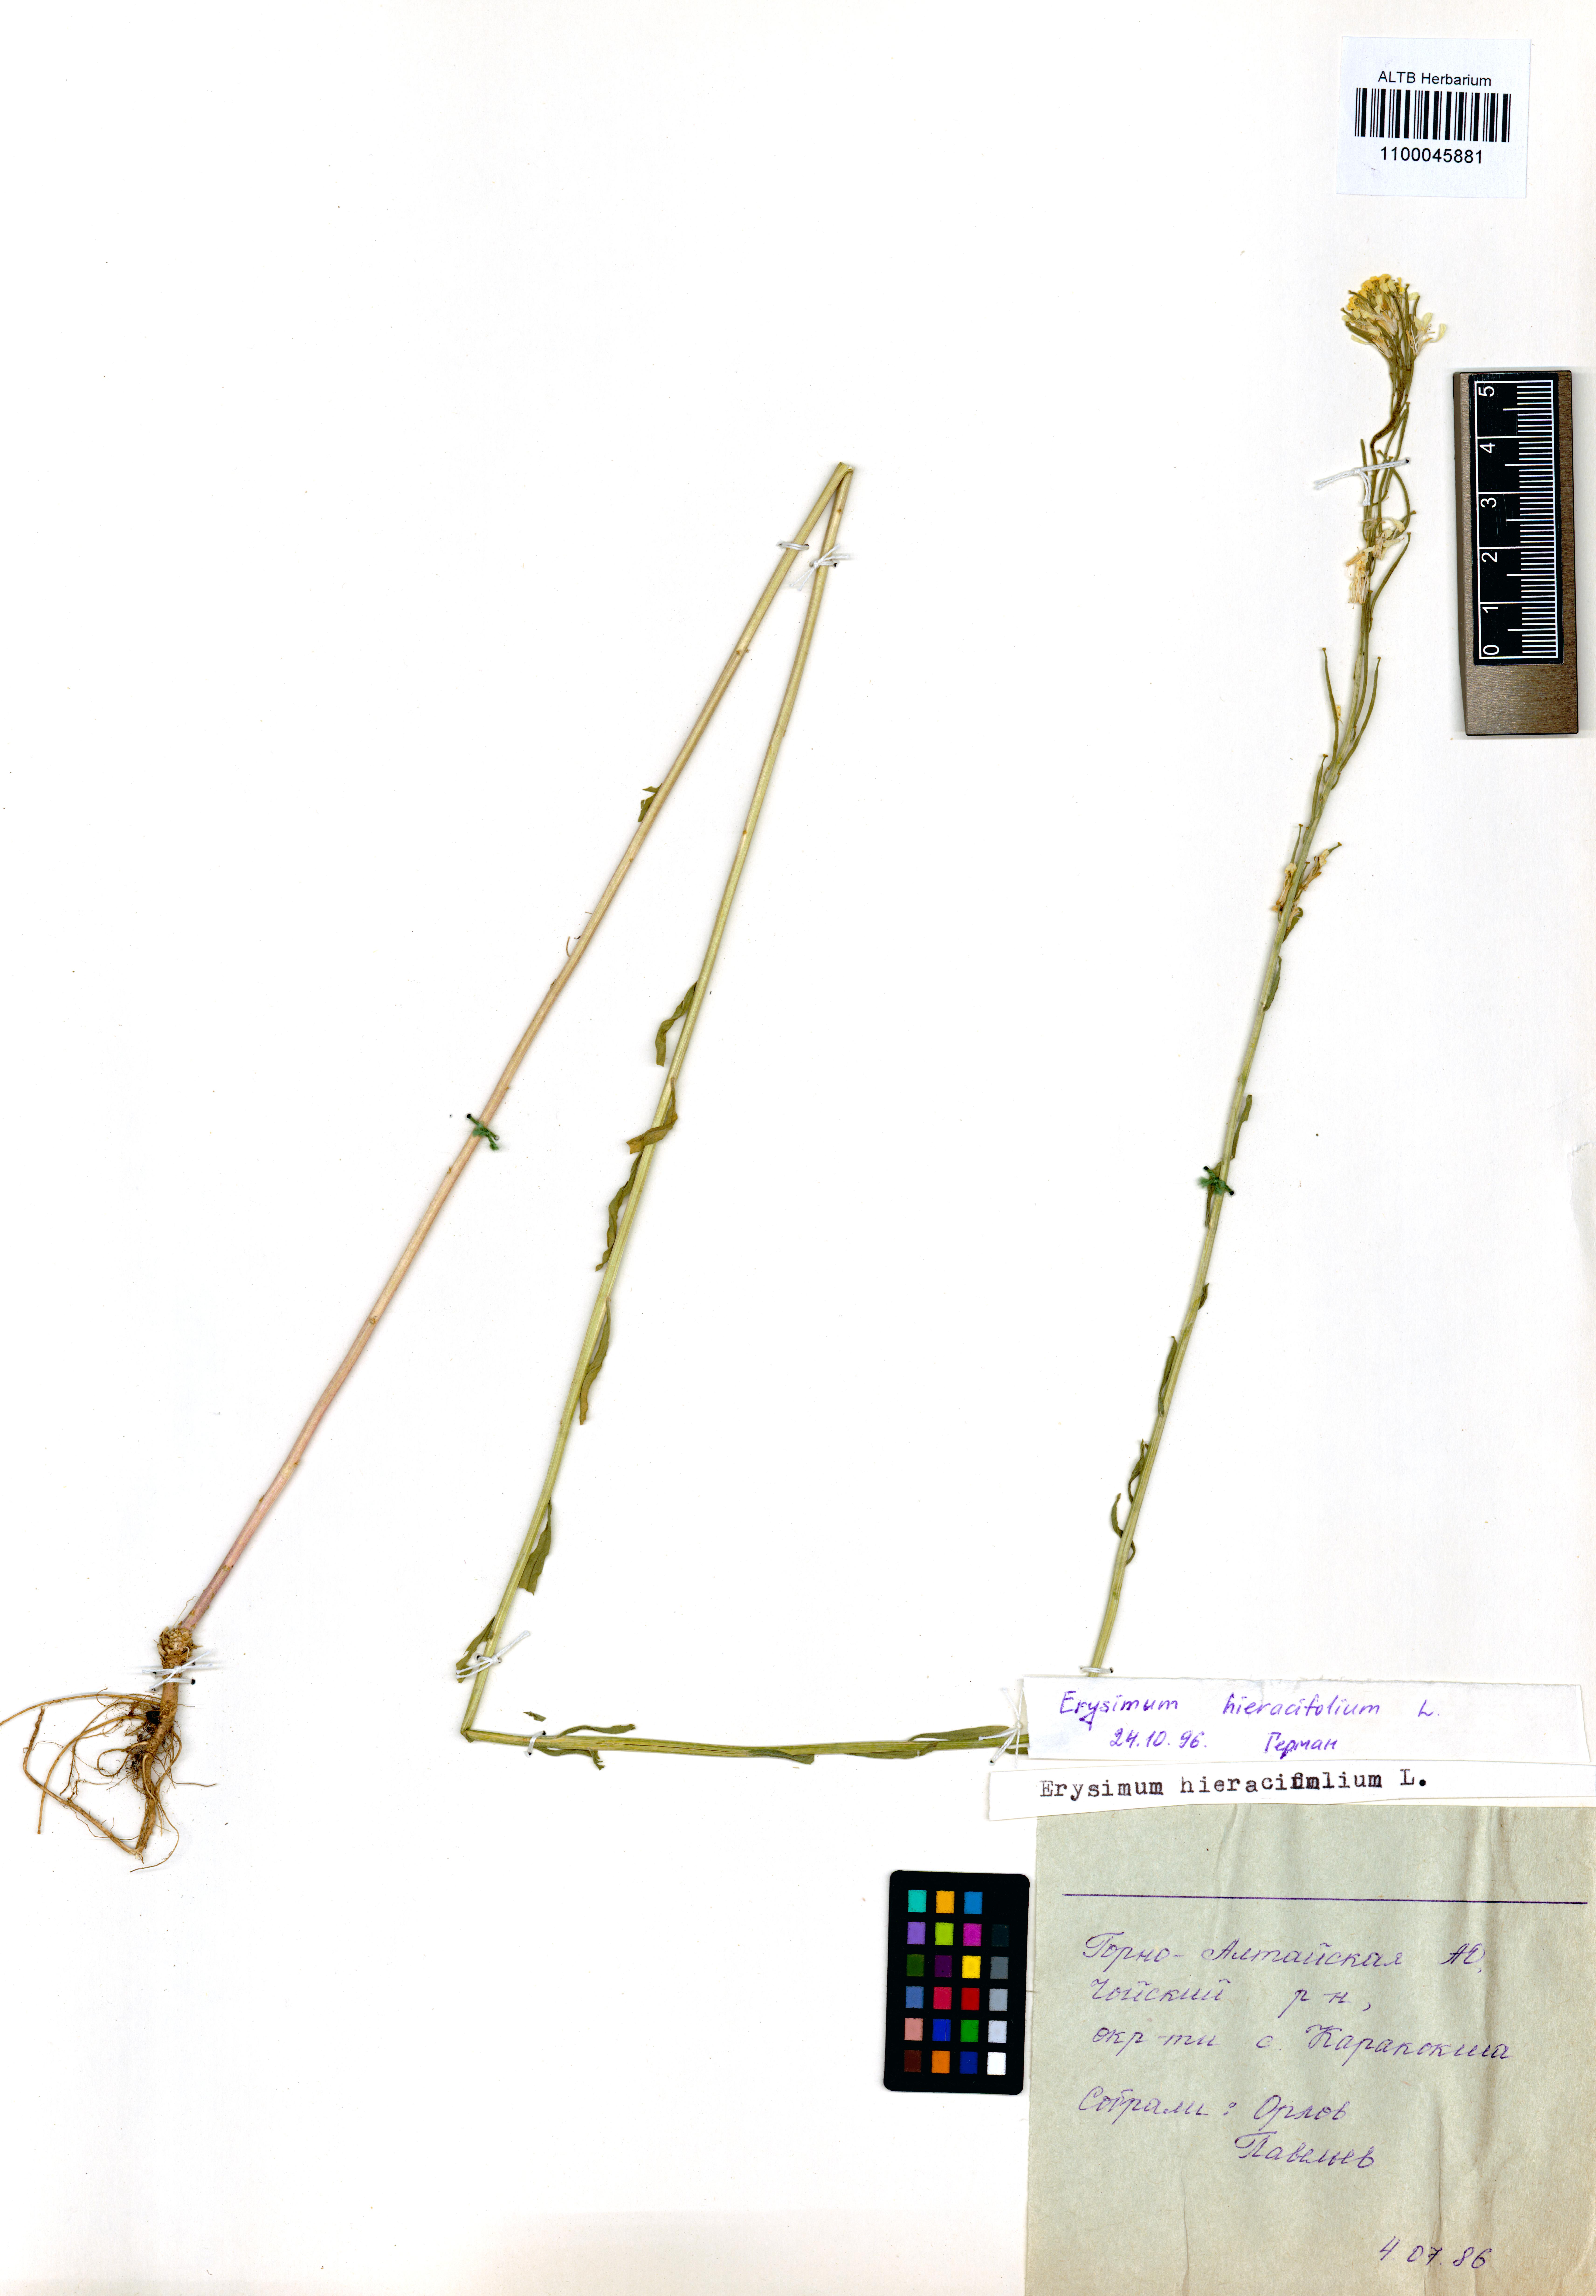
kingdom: Plantae
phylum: Tracheophyta
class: Magnoliopsida
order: Brassicales
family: Brassicaceae
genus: Erysimum
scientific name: Erysimum hieraciifolium
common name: European wallflower
